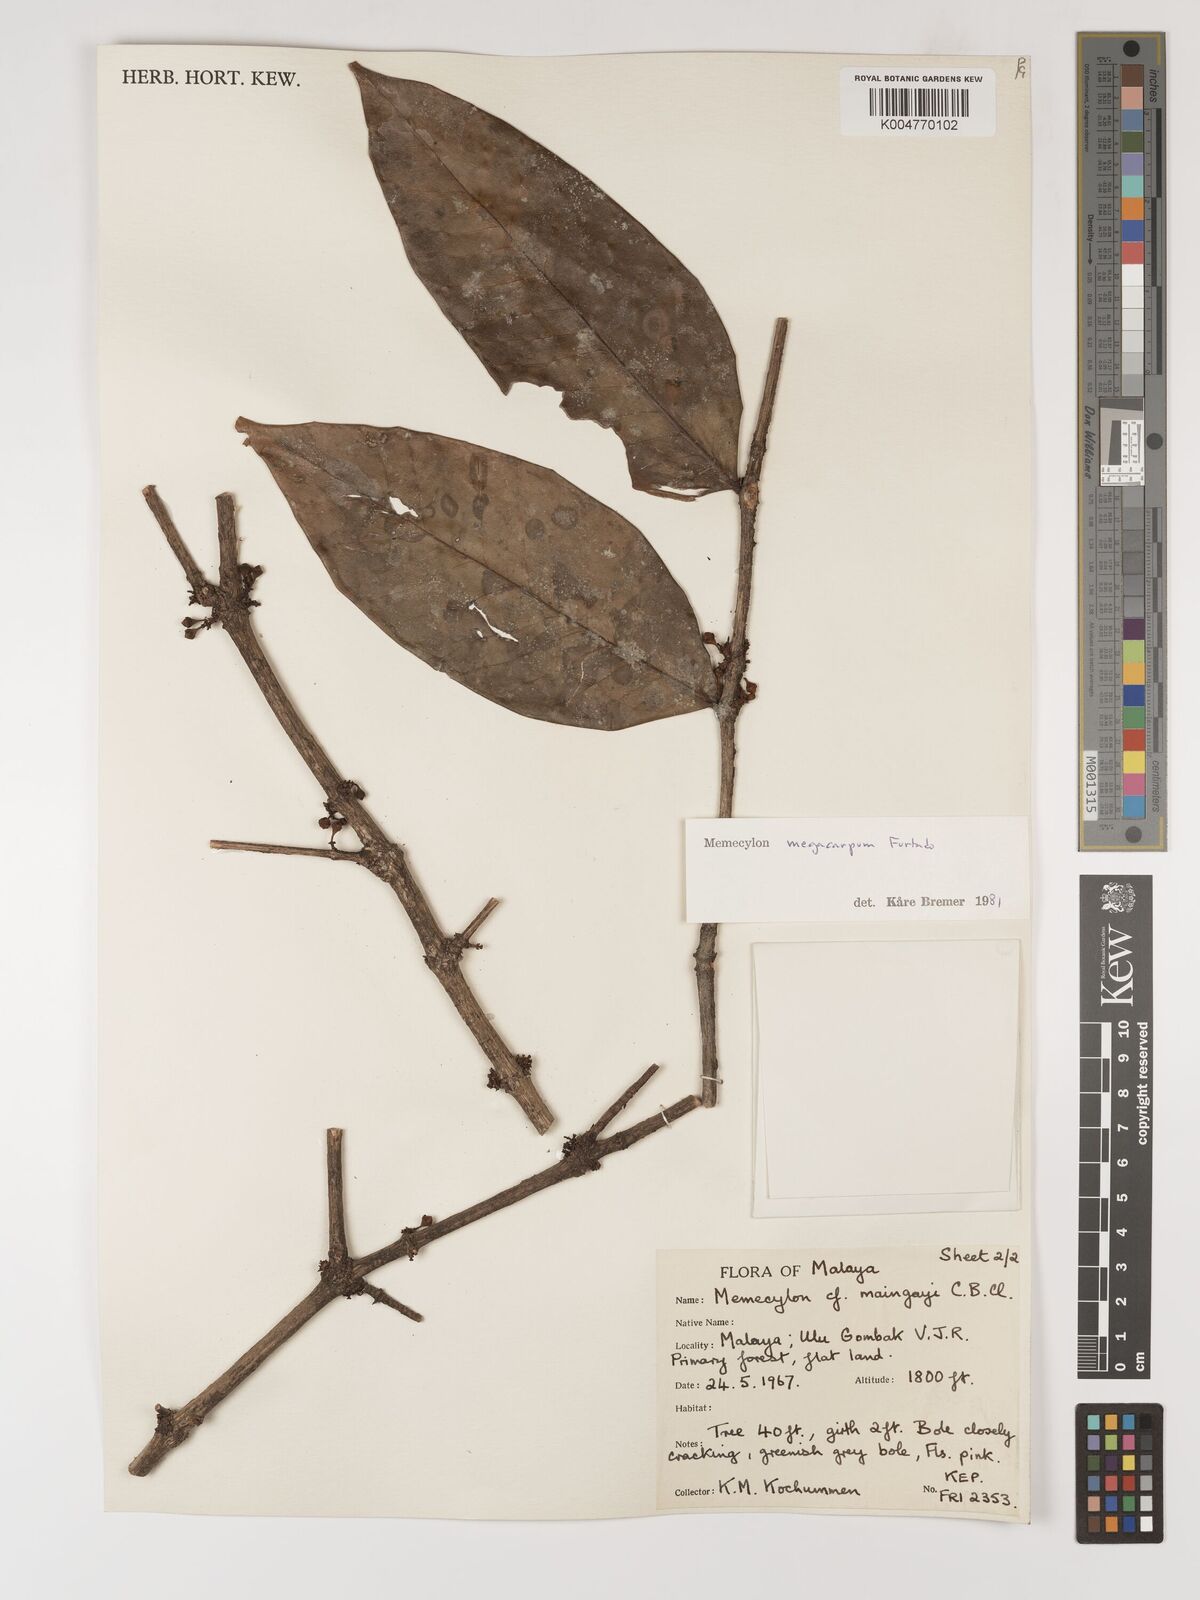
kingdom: Plantae
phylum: Tracheophyta
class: Magnoliopsida
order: Myrtales
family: Melastomataceae
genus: Memecylon
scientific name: Memecylon megacarpum
